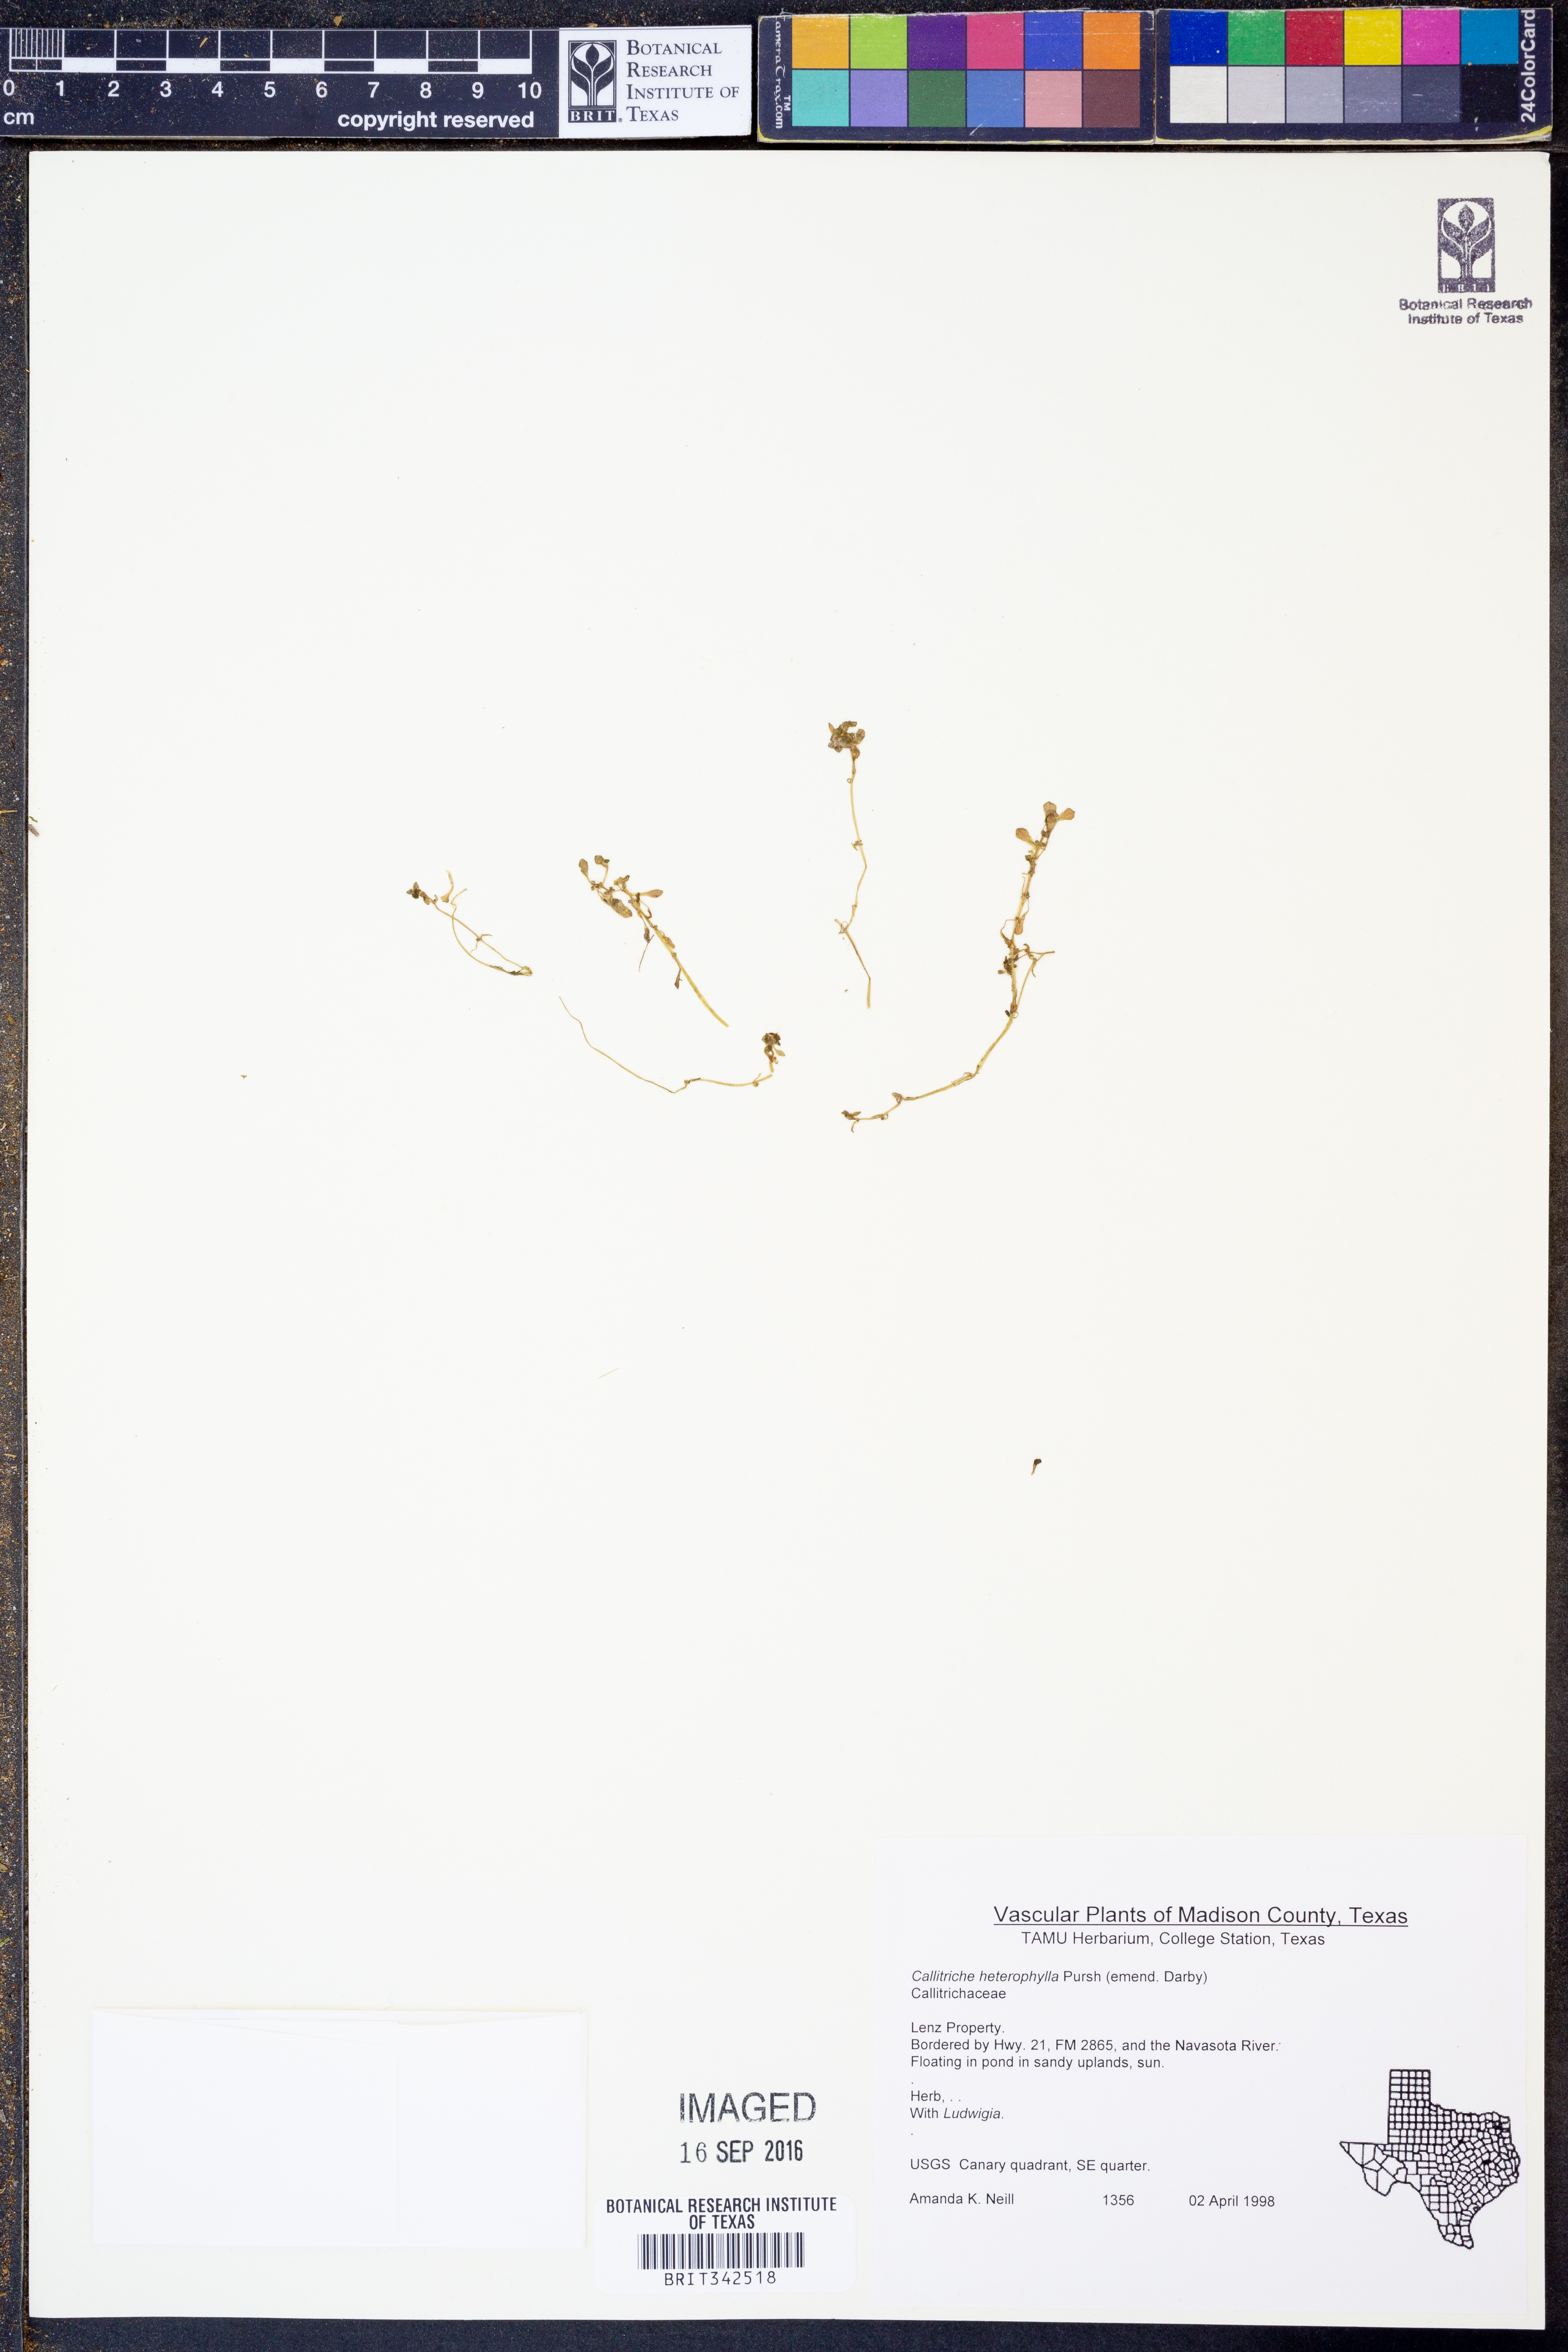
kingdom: Plantae
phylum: Tracheophyta
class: Magnoliopsida
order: Lamiales
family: Plantaginaceae
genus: Callitriche
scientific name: Callitriche heterophylla
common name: Two-headed water-starwort
